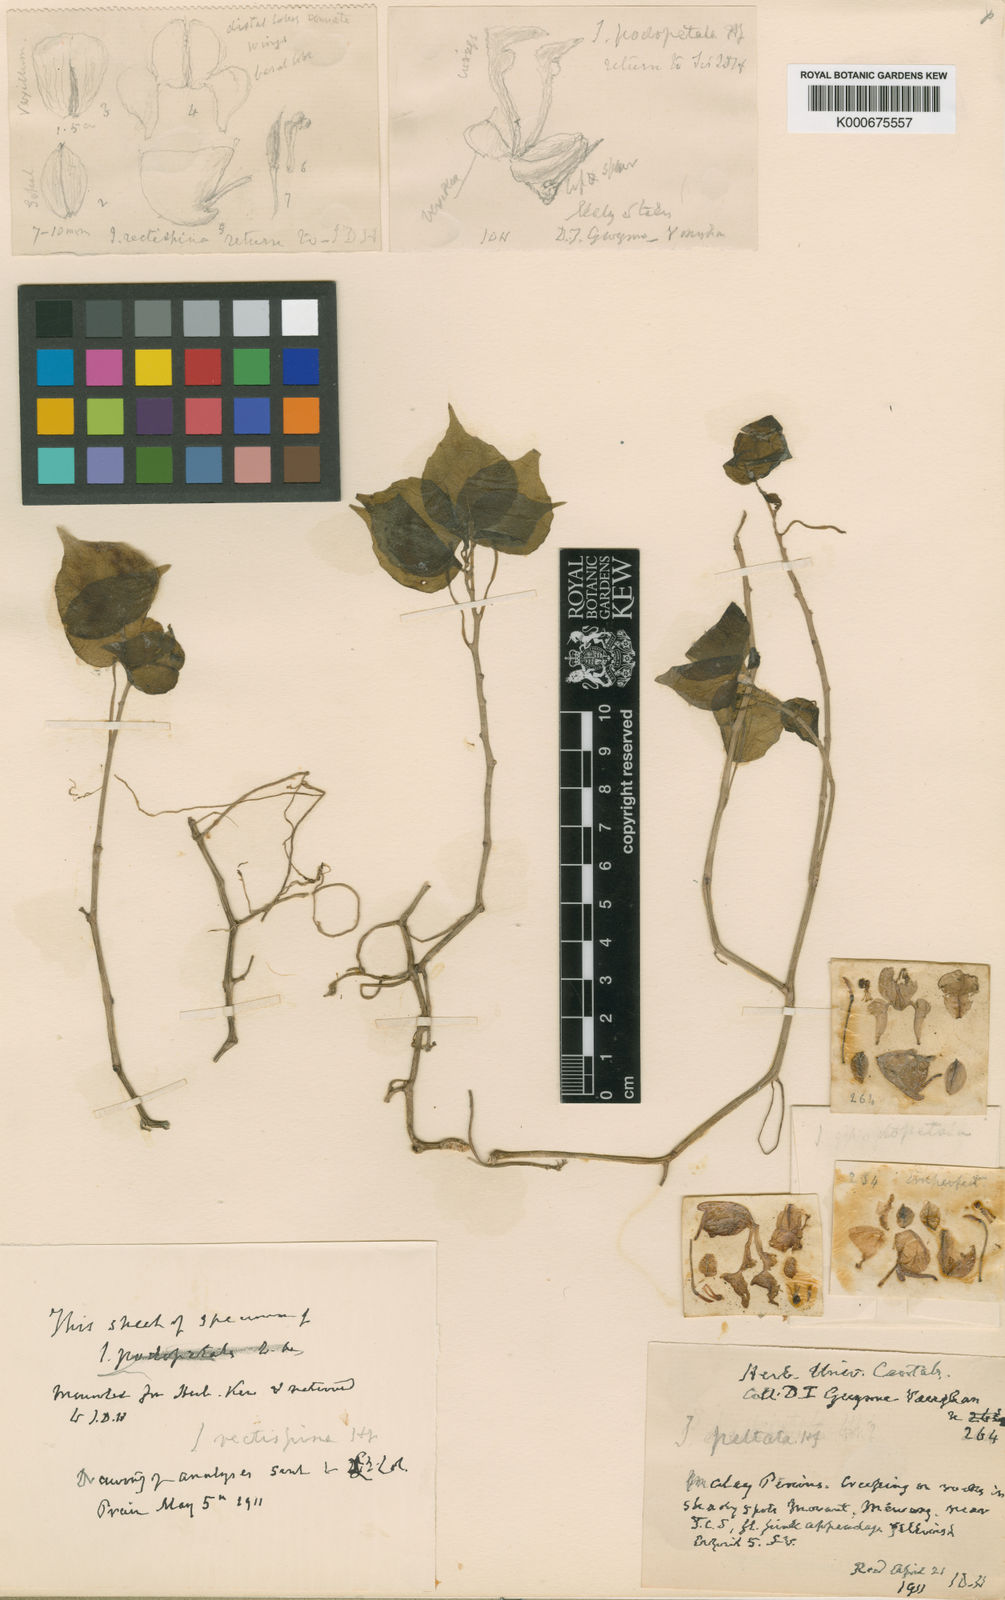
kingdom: Plantae
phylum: Tracheophyta
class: Magnoliopsida
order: Ericales
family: Balsaminaceae
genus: Impatiens
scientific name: Impatiens peltata
